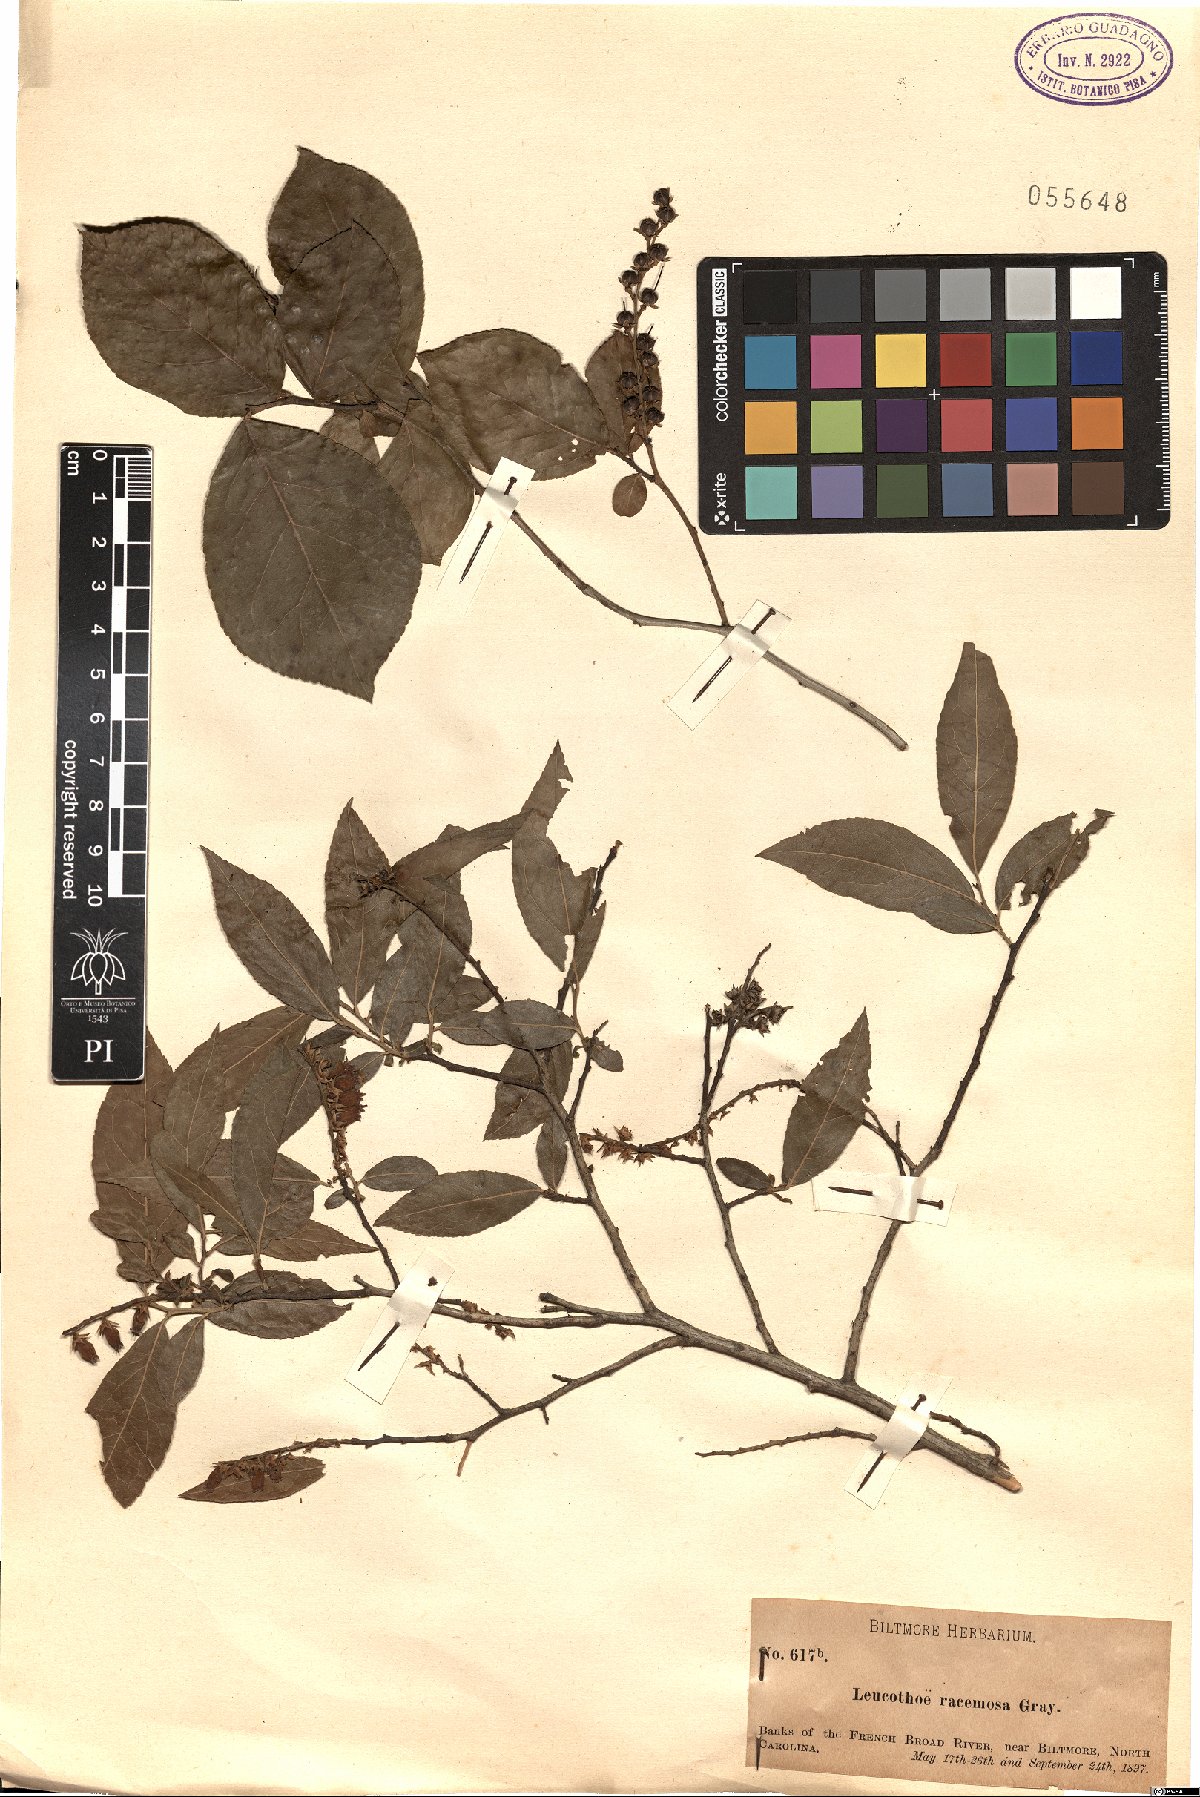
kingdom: Plantae
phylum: Tracheophyta
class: Magnoliopsida
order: Ericales
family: Ericaceae
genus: Eubotrys
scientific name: Eubotrys racemosa
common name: Fetterbush
